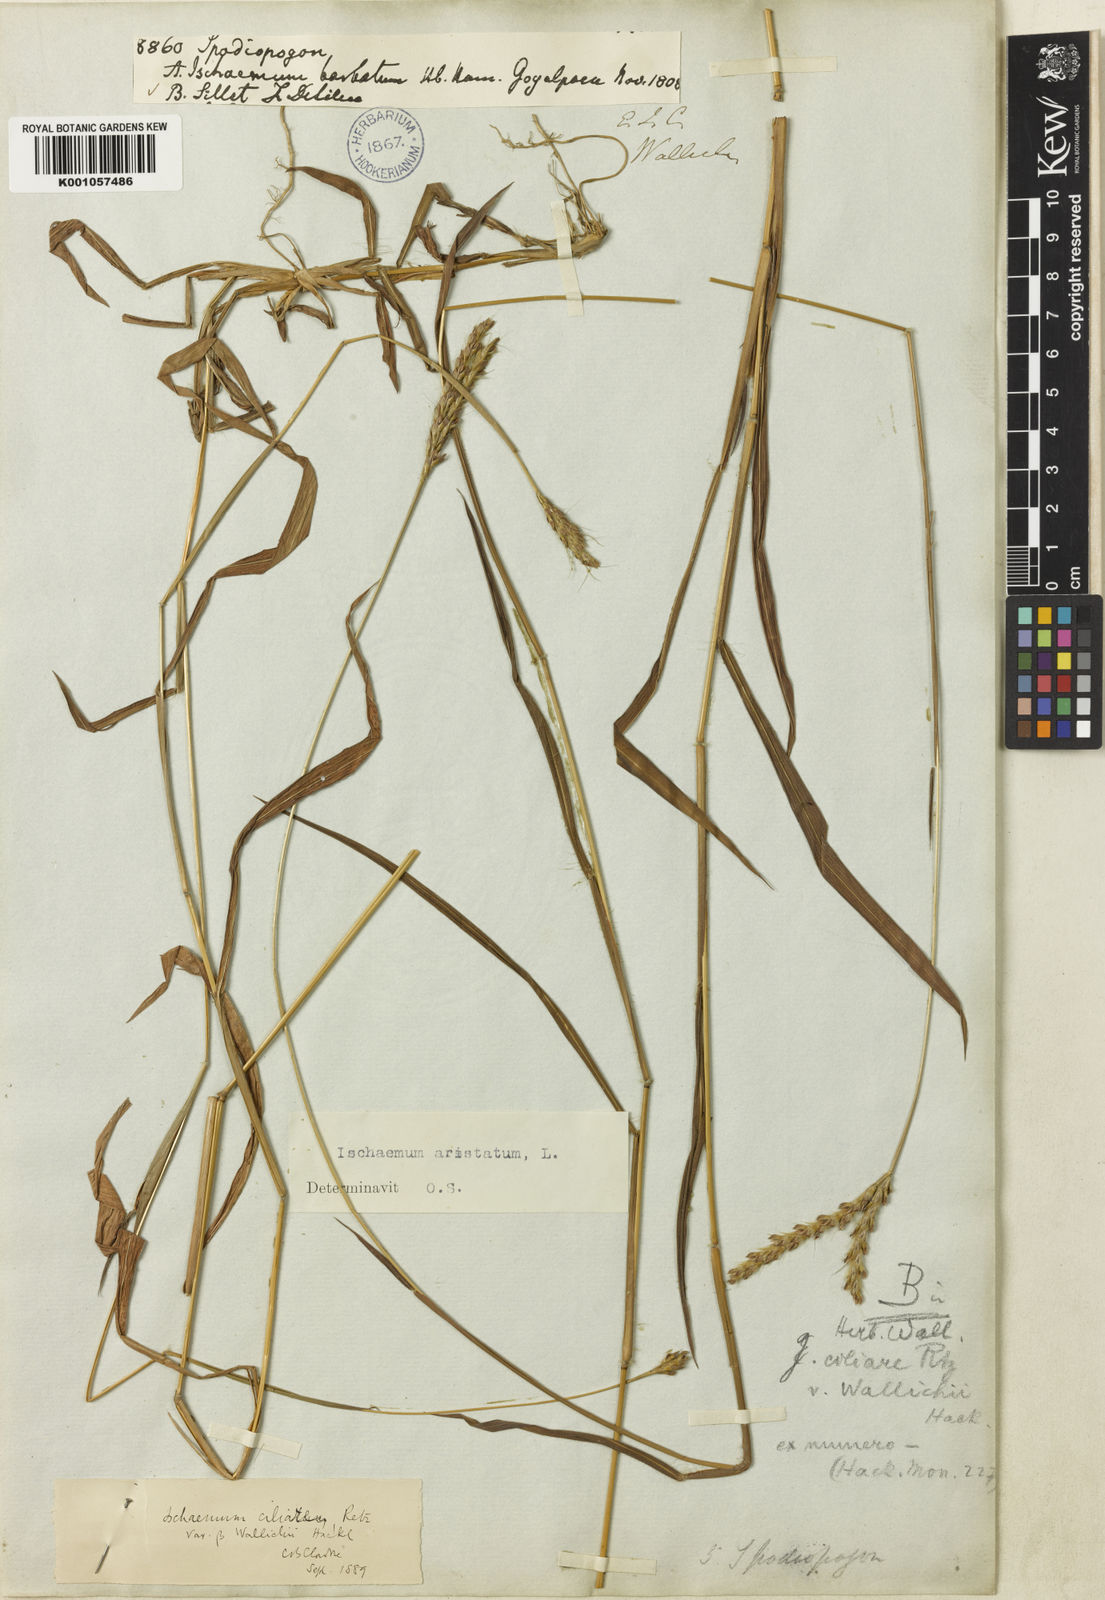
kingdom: Plantae
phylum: Tracheophyta
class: Liliopsida
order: Poales
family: Poaceae
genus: Polytrias
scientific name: Polytrias indica
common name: Indian murainagrass
